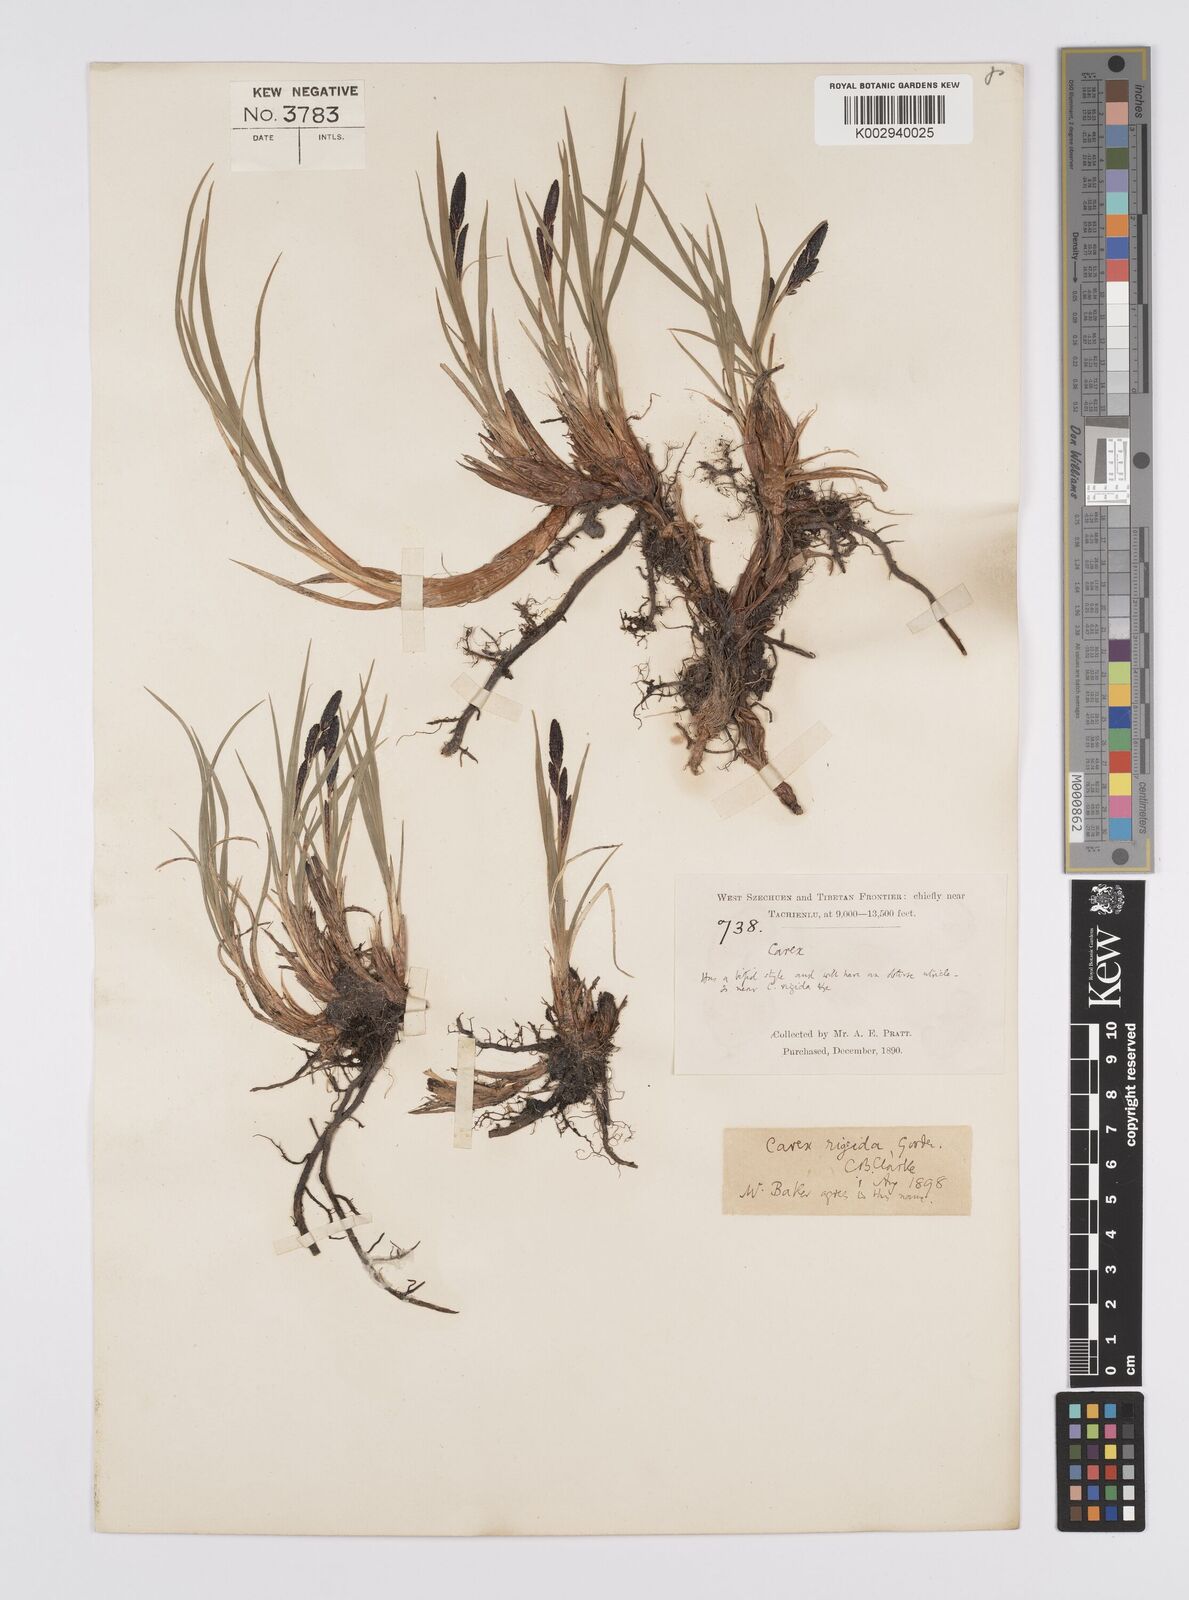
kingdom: Plantae
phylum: Tracheophyta
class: Liliopsida
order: Poales
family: Cyperaceae
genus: Carex
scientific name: Carex dacica
